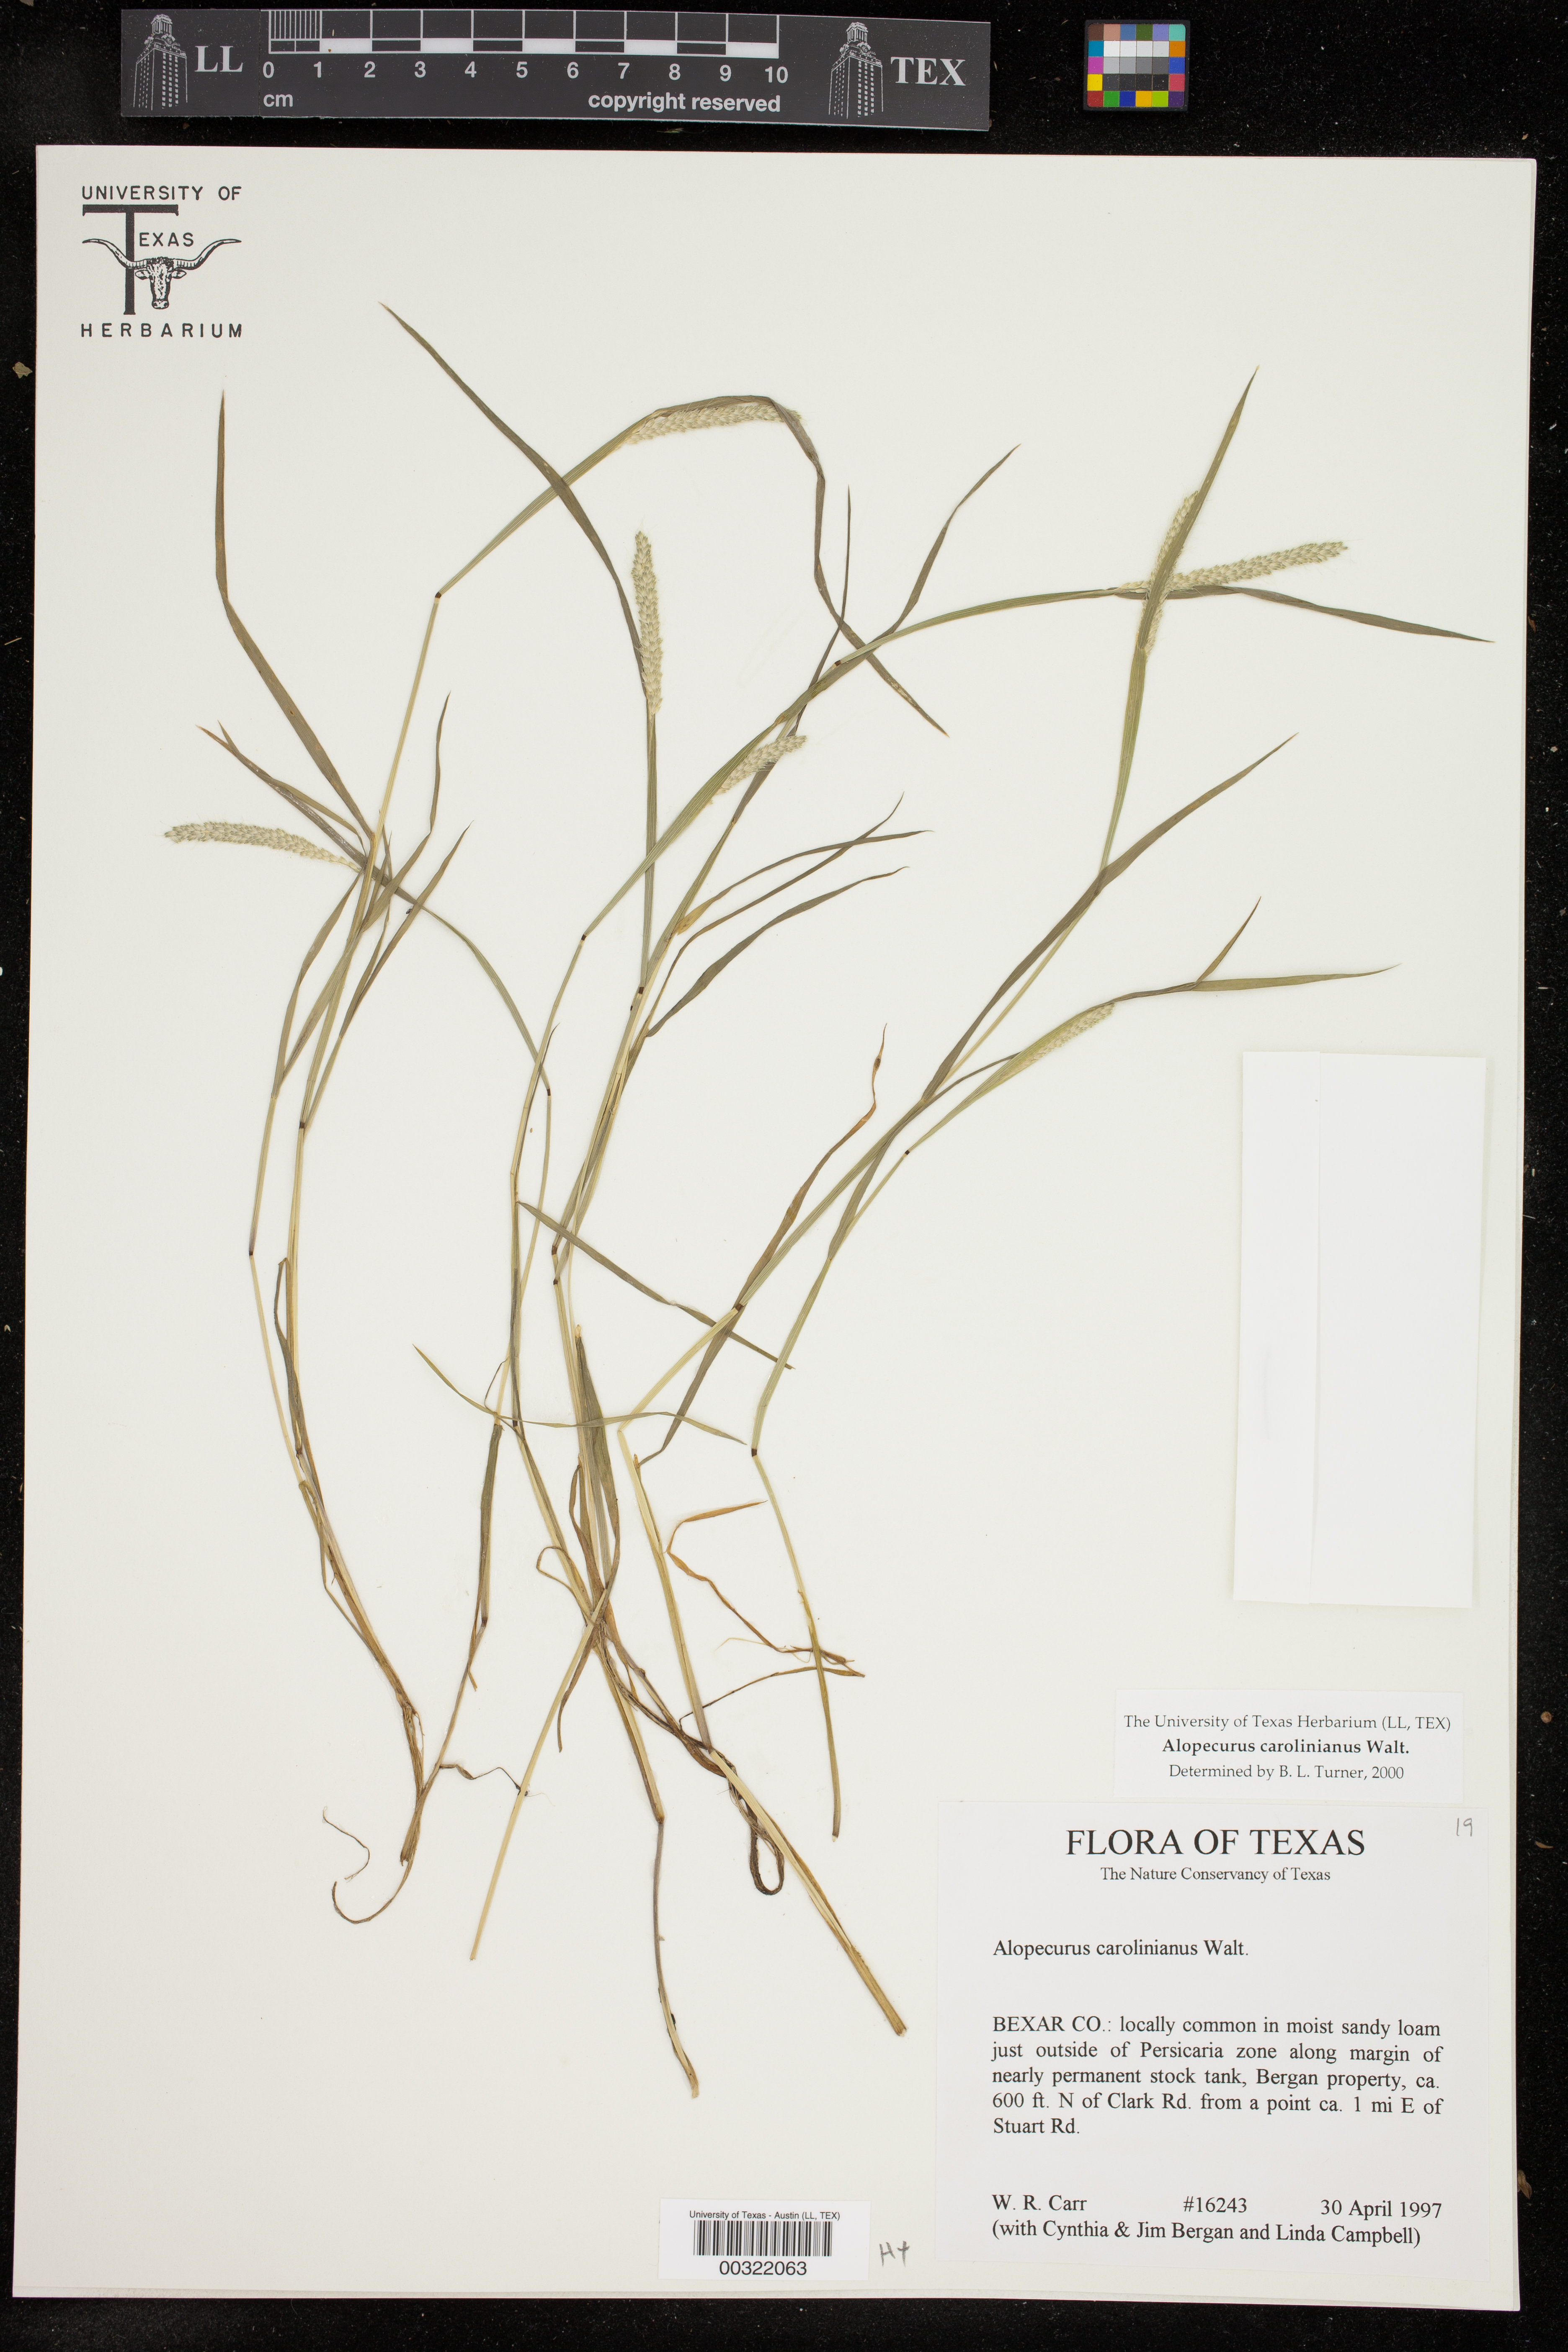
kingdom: Plantae
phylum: Tracheophyta
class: Liliopsida
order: Poales
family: Poaceae
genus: Alopecurus
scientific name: Alopecurus carolinianus
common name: Tufted foxtail
